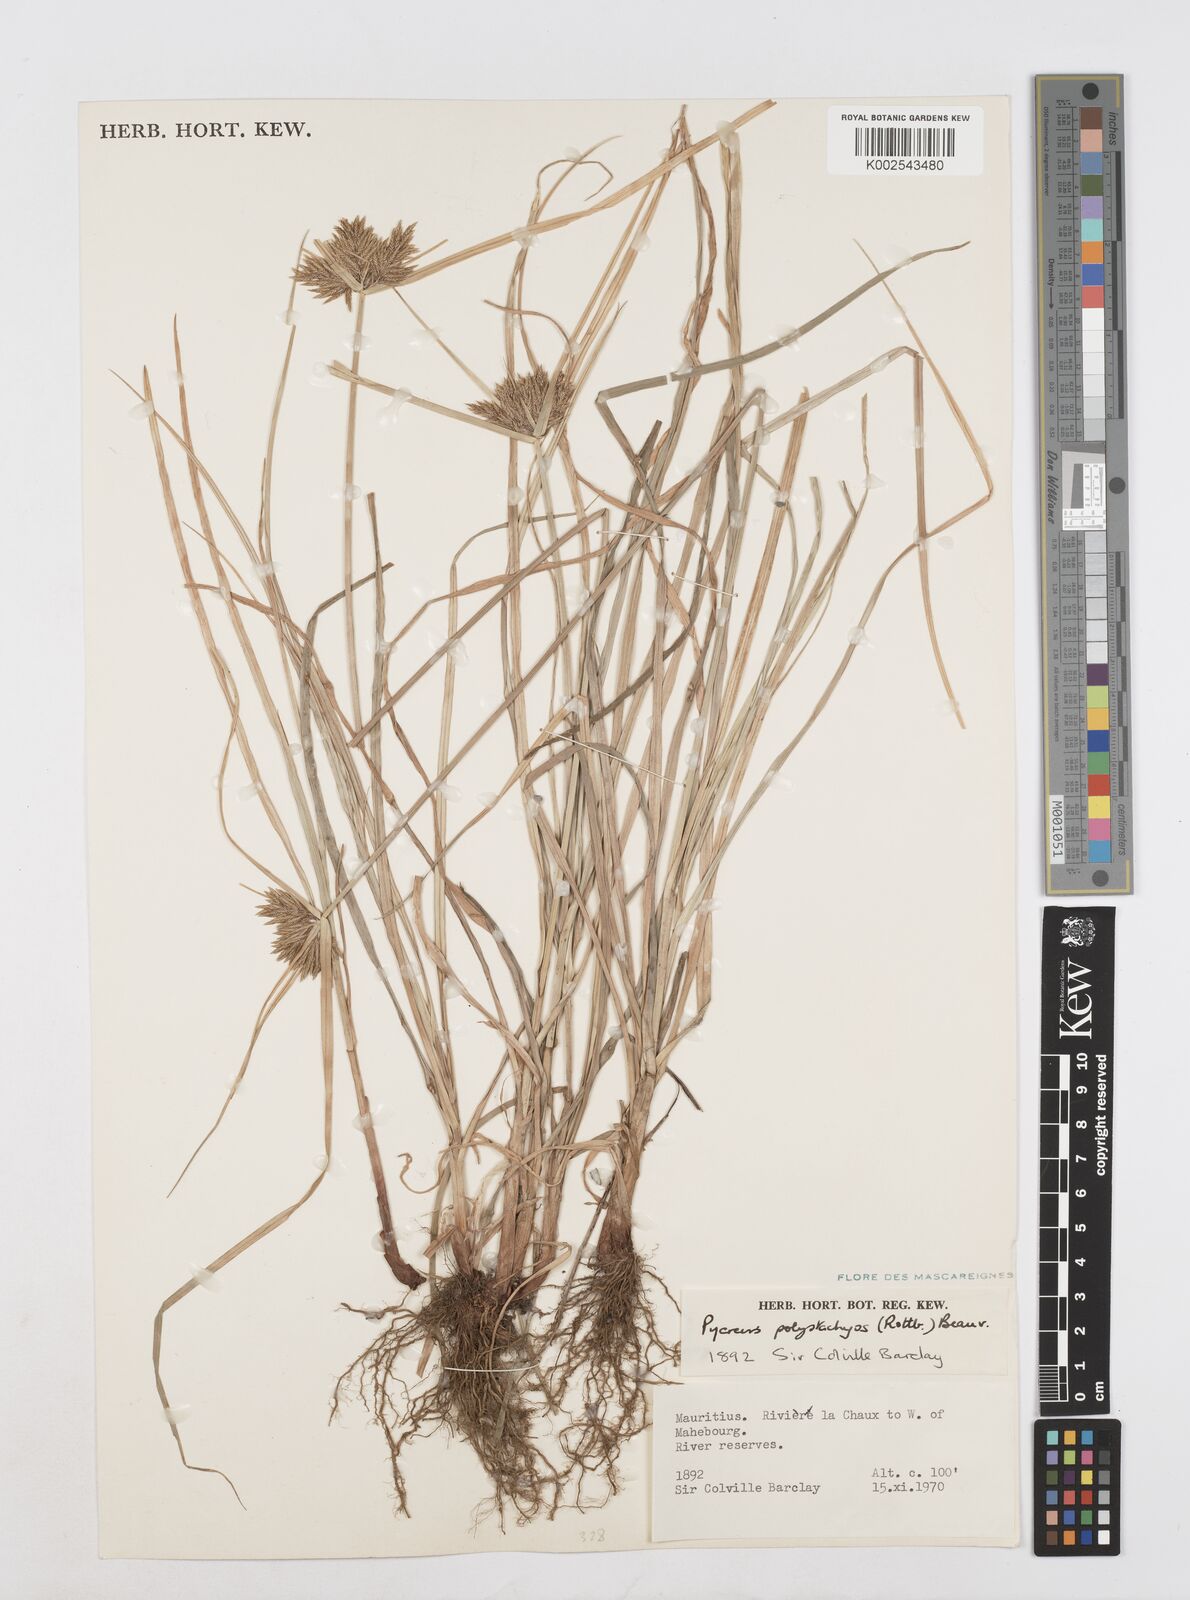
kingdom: Plantae
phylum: Tracheophyta
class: Liliopsida
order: Poales
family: Cyperaceae
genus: Cyperus
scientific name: Cyperus polystachyos
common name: Bunchy flat sedge
